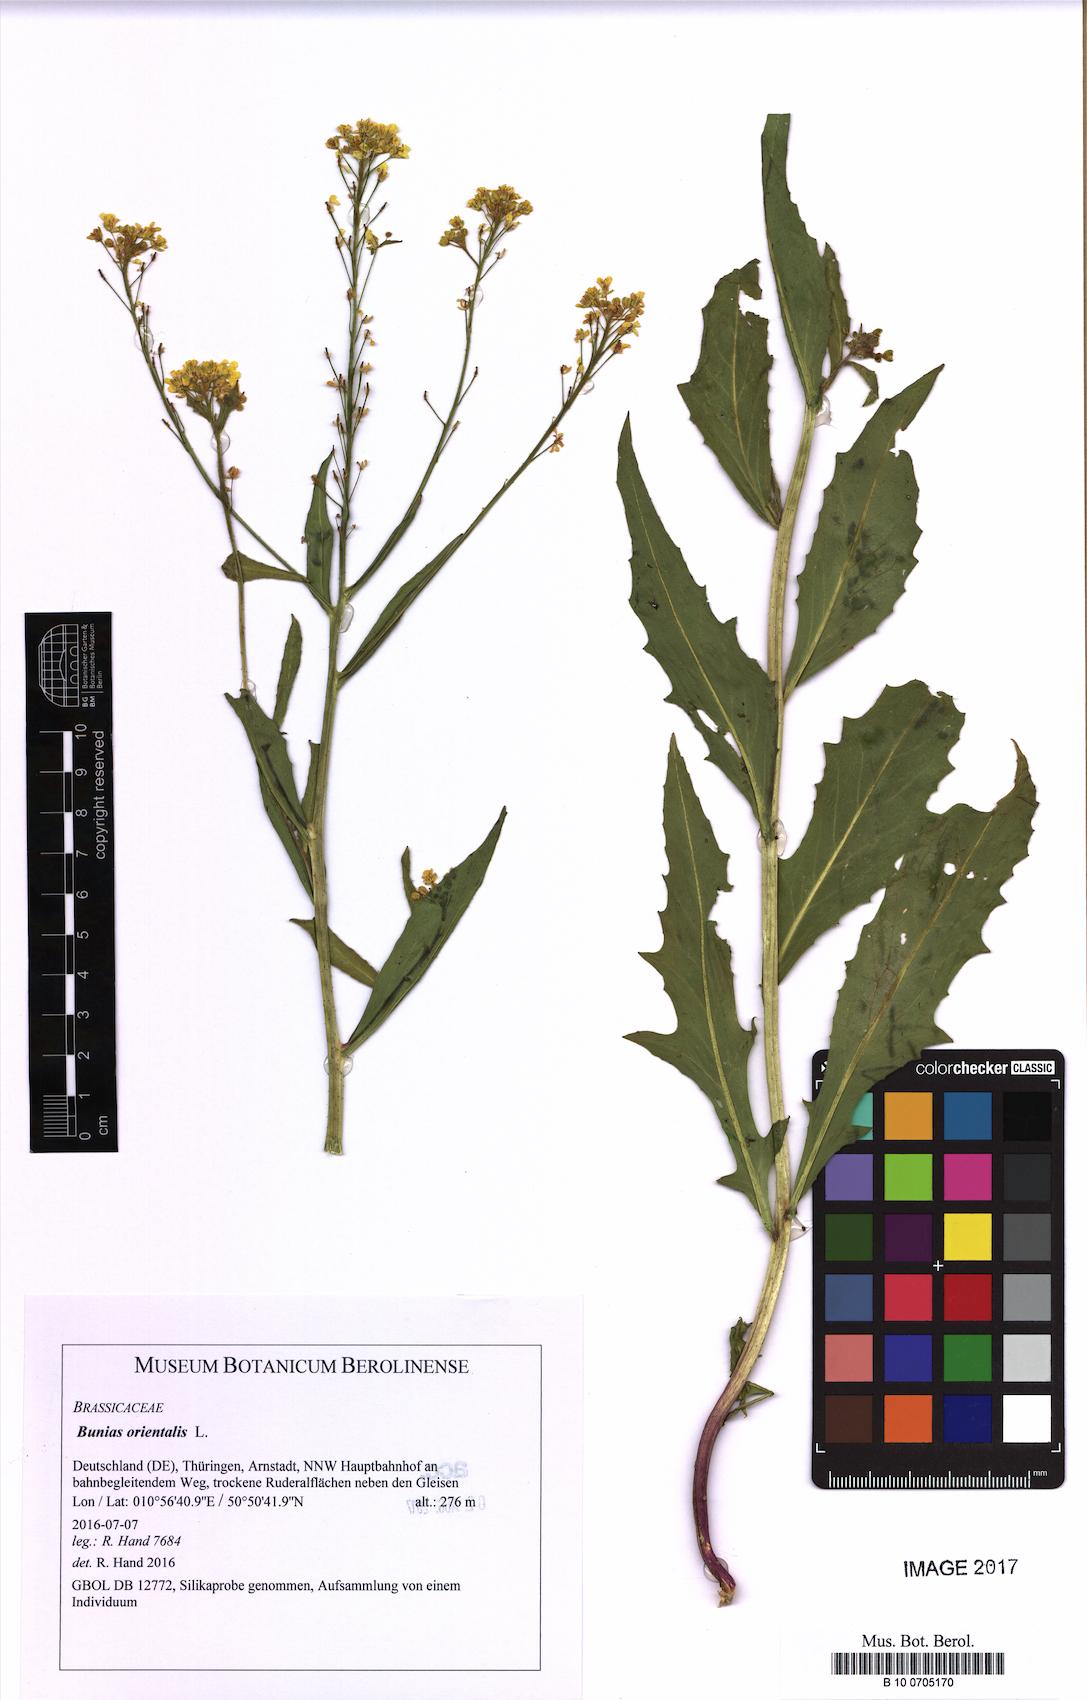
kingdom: Plantae
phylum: Tracheophyta
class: Magnoliopsida
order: Brassicales
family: Brassicaceae
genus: Bunias
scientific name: Bunias orientalis
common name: Warty-cabbage
